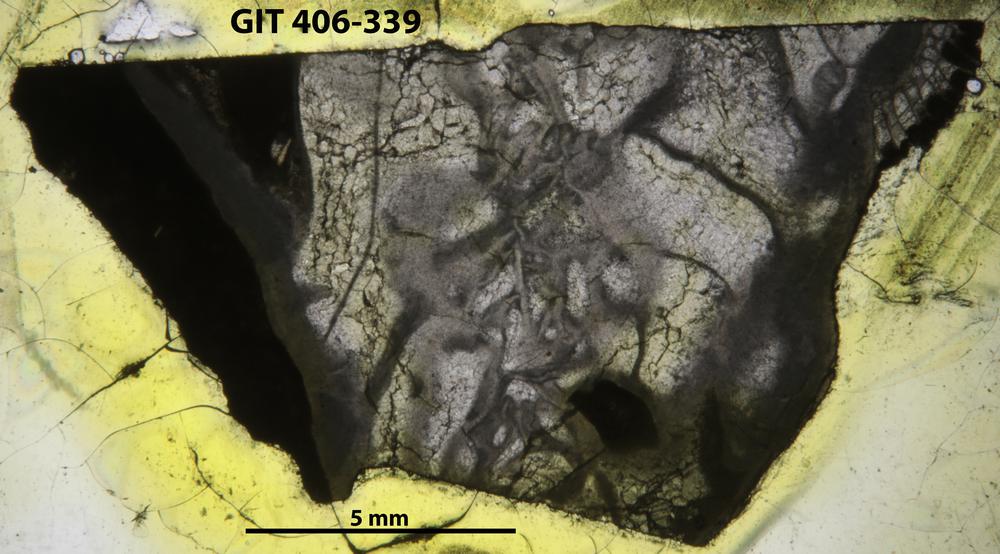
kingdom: Animalia
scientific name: Animalia
